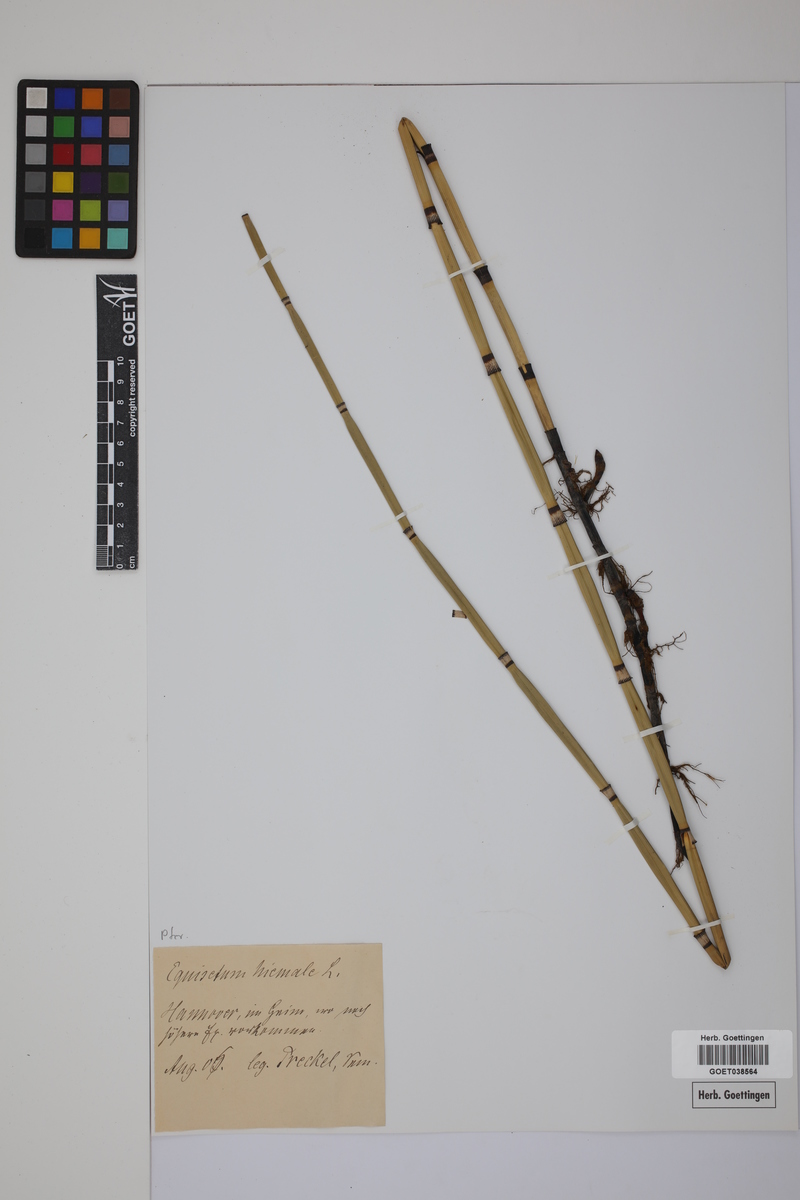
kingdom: Plantae
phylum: Tracheophyta
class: Polypodiopsida
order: Equisetales
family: Equisetaceae
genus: Equisetum
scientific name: Equisetum hyemale
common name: Rough horsetail
